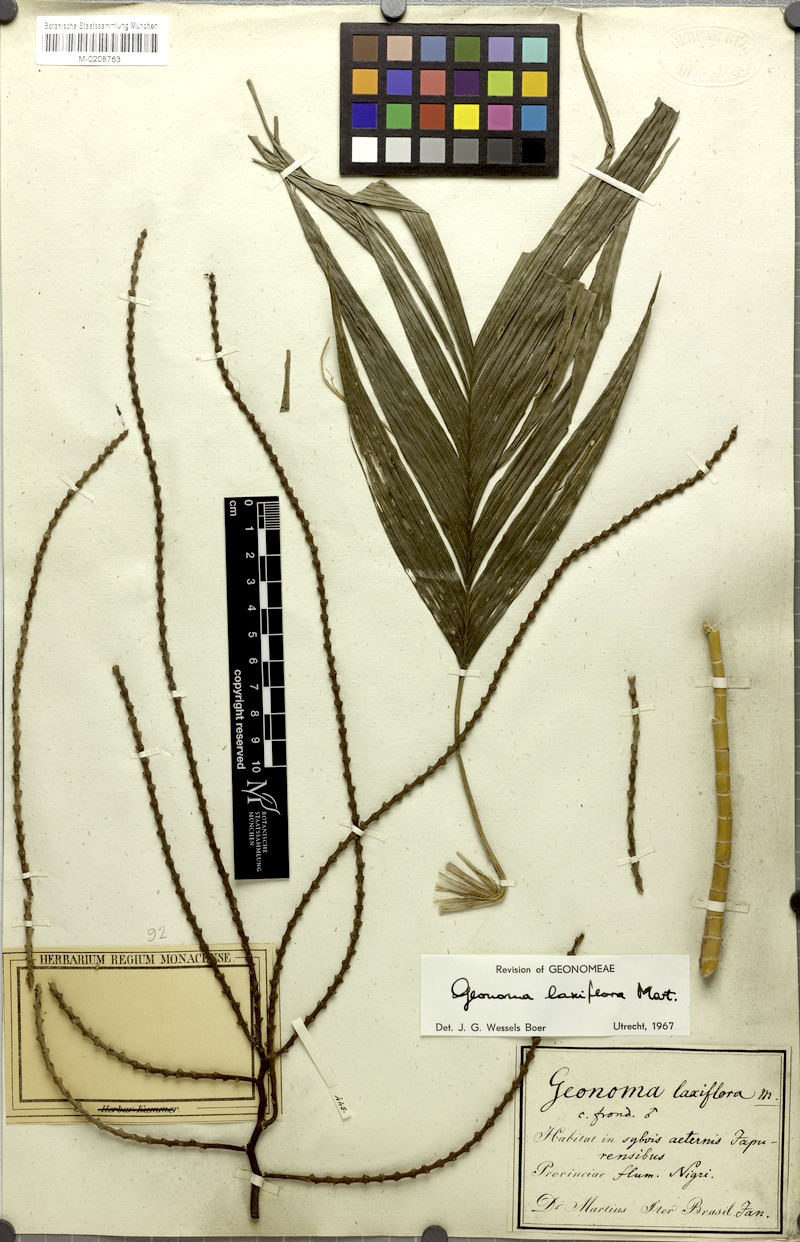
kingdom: Plantae
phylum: Tracheophyta
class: Liliopsida
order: Arecales
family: Arecaceae
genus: Geonoma
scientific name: Geonoma laxiflora
